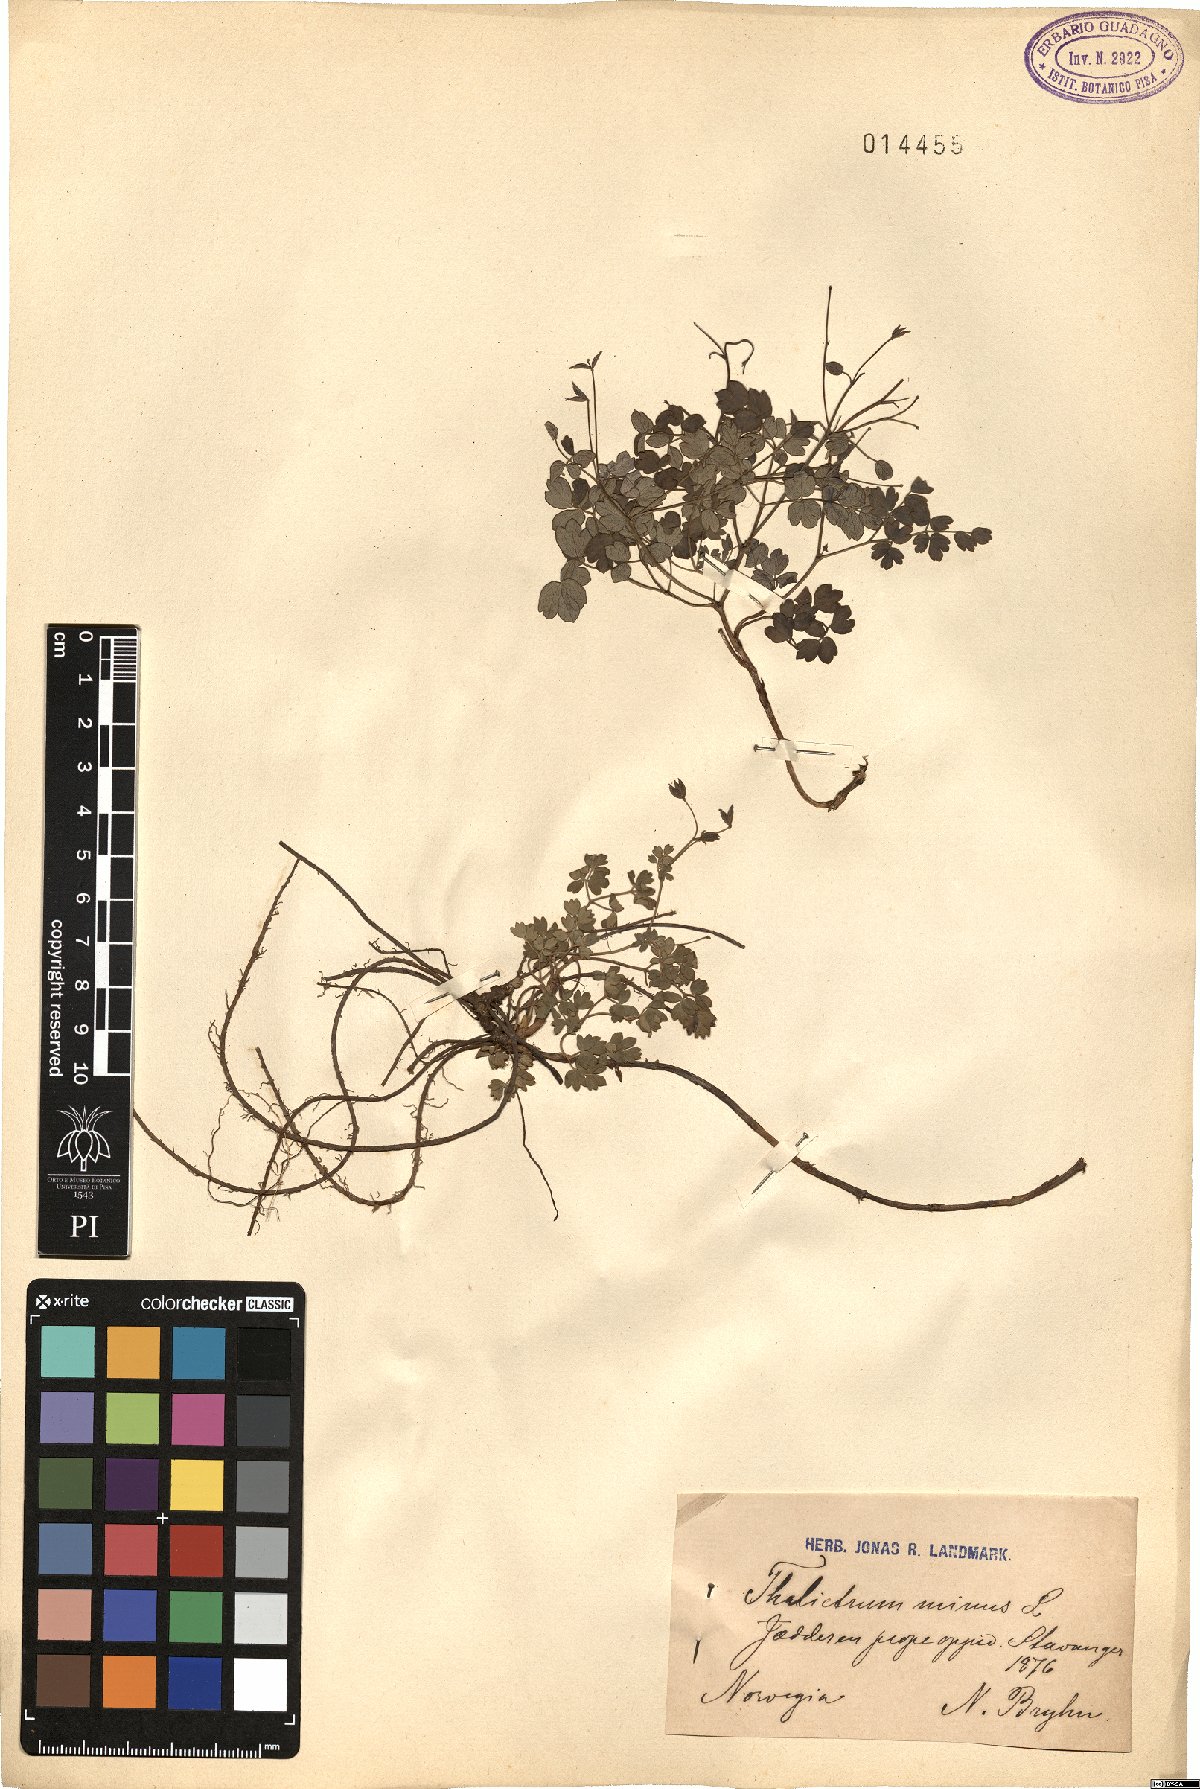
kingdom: Plantae
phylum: Tracheophyta
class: Magnoliopsida
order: Ranunculales
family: Ranunculaceae
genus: Thalictrum
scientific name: Thalictrum minus
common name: Lesser meadow-rue
